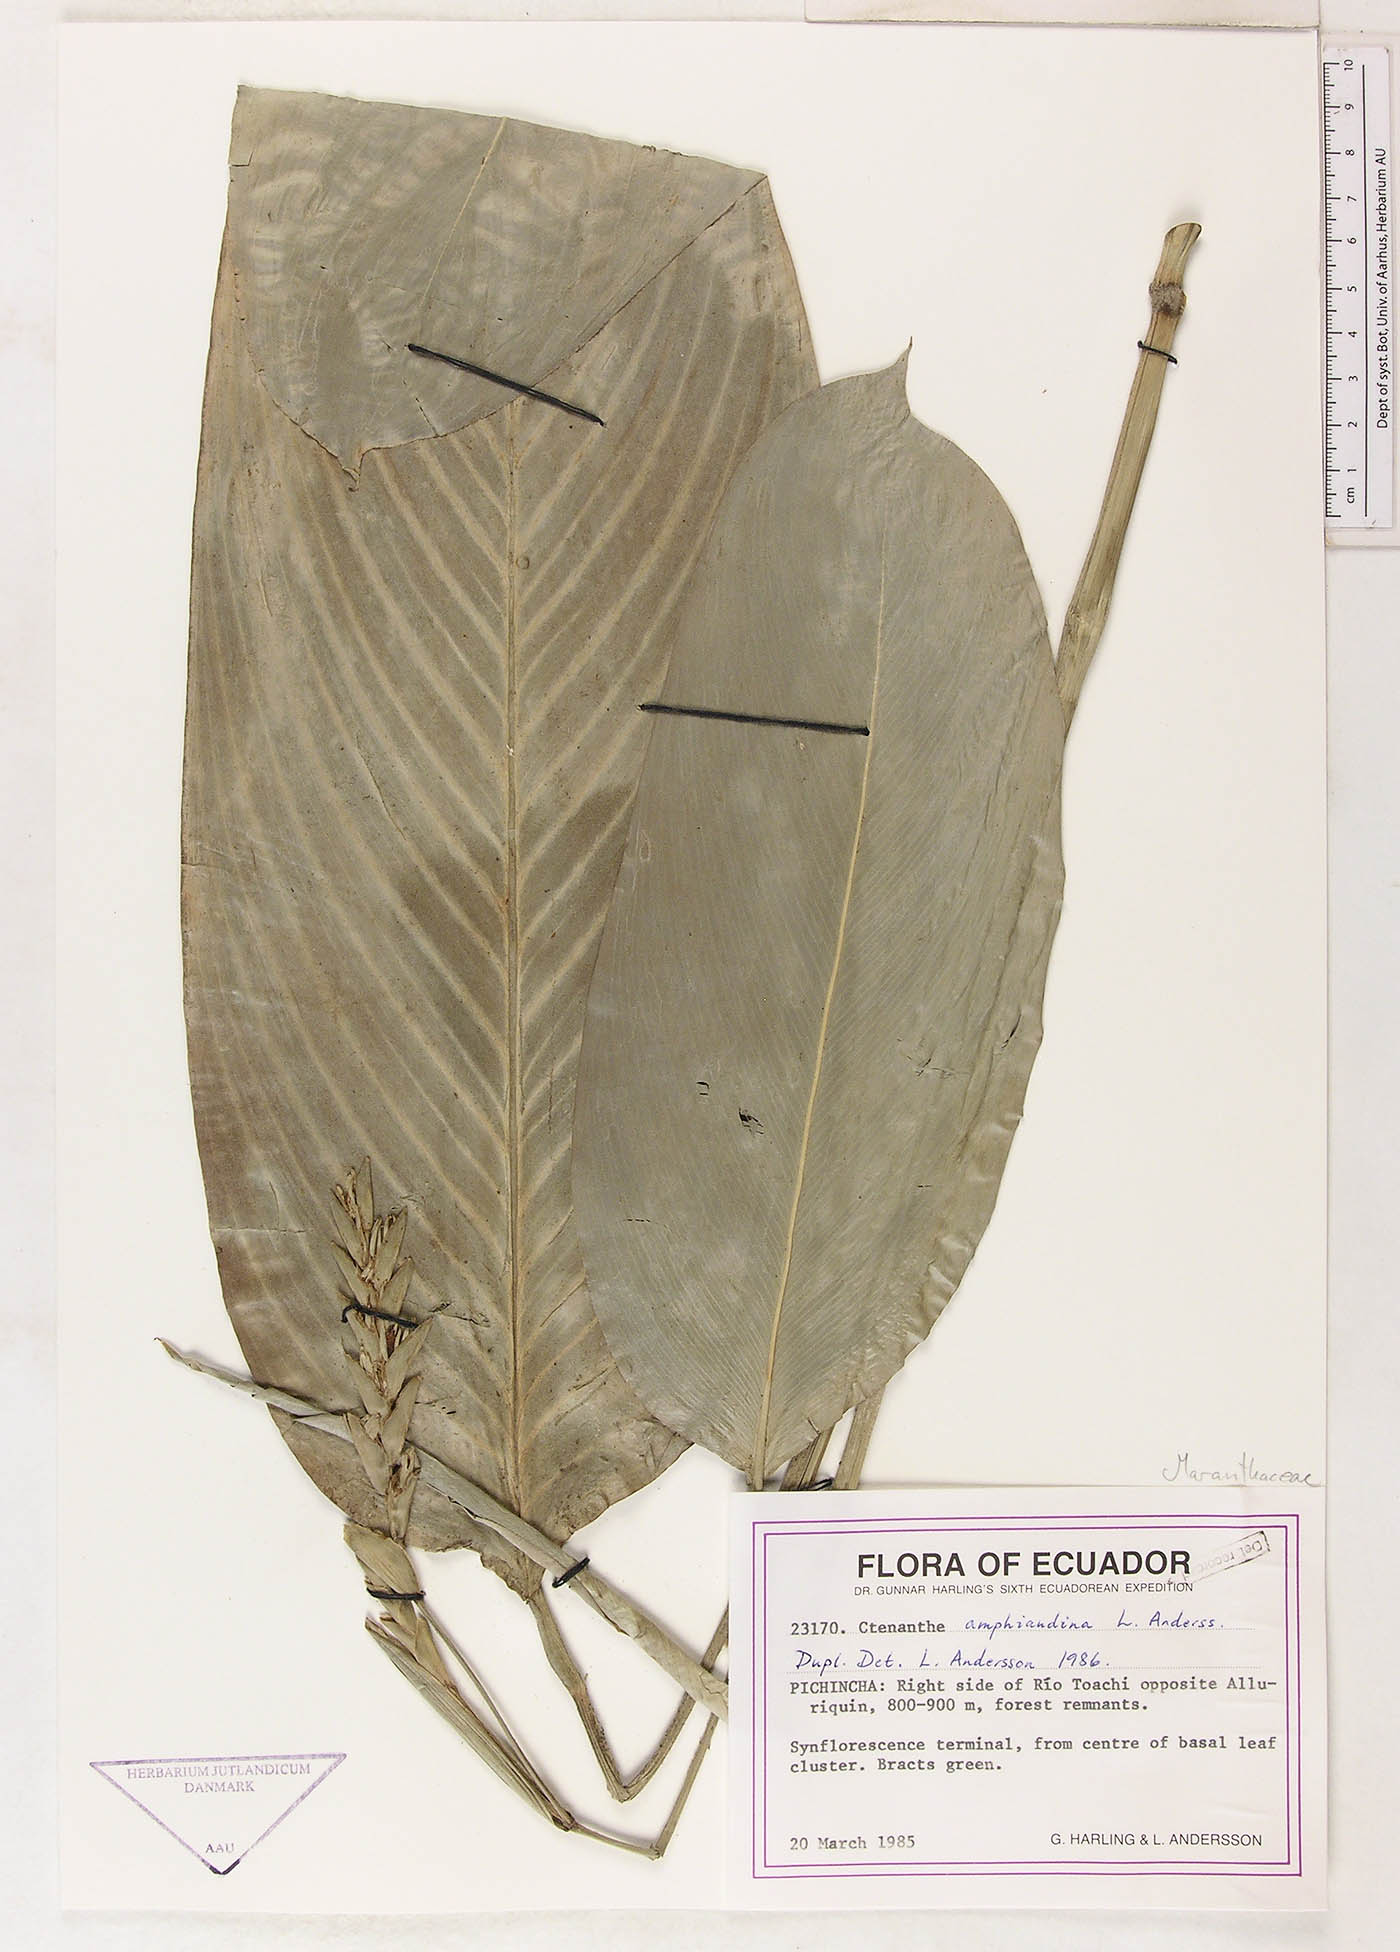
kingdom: Plantae
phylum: Tracheophyta
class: Liliopsida
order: Zingiberales
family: Marantaceae
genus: Ctenanthe
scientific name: Ctenanthe amphiandina
